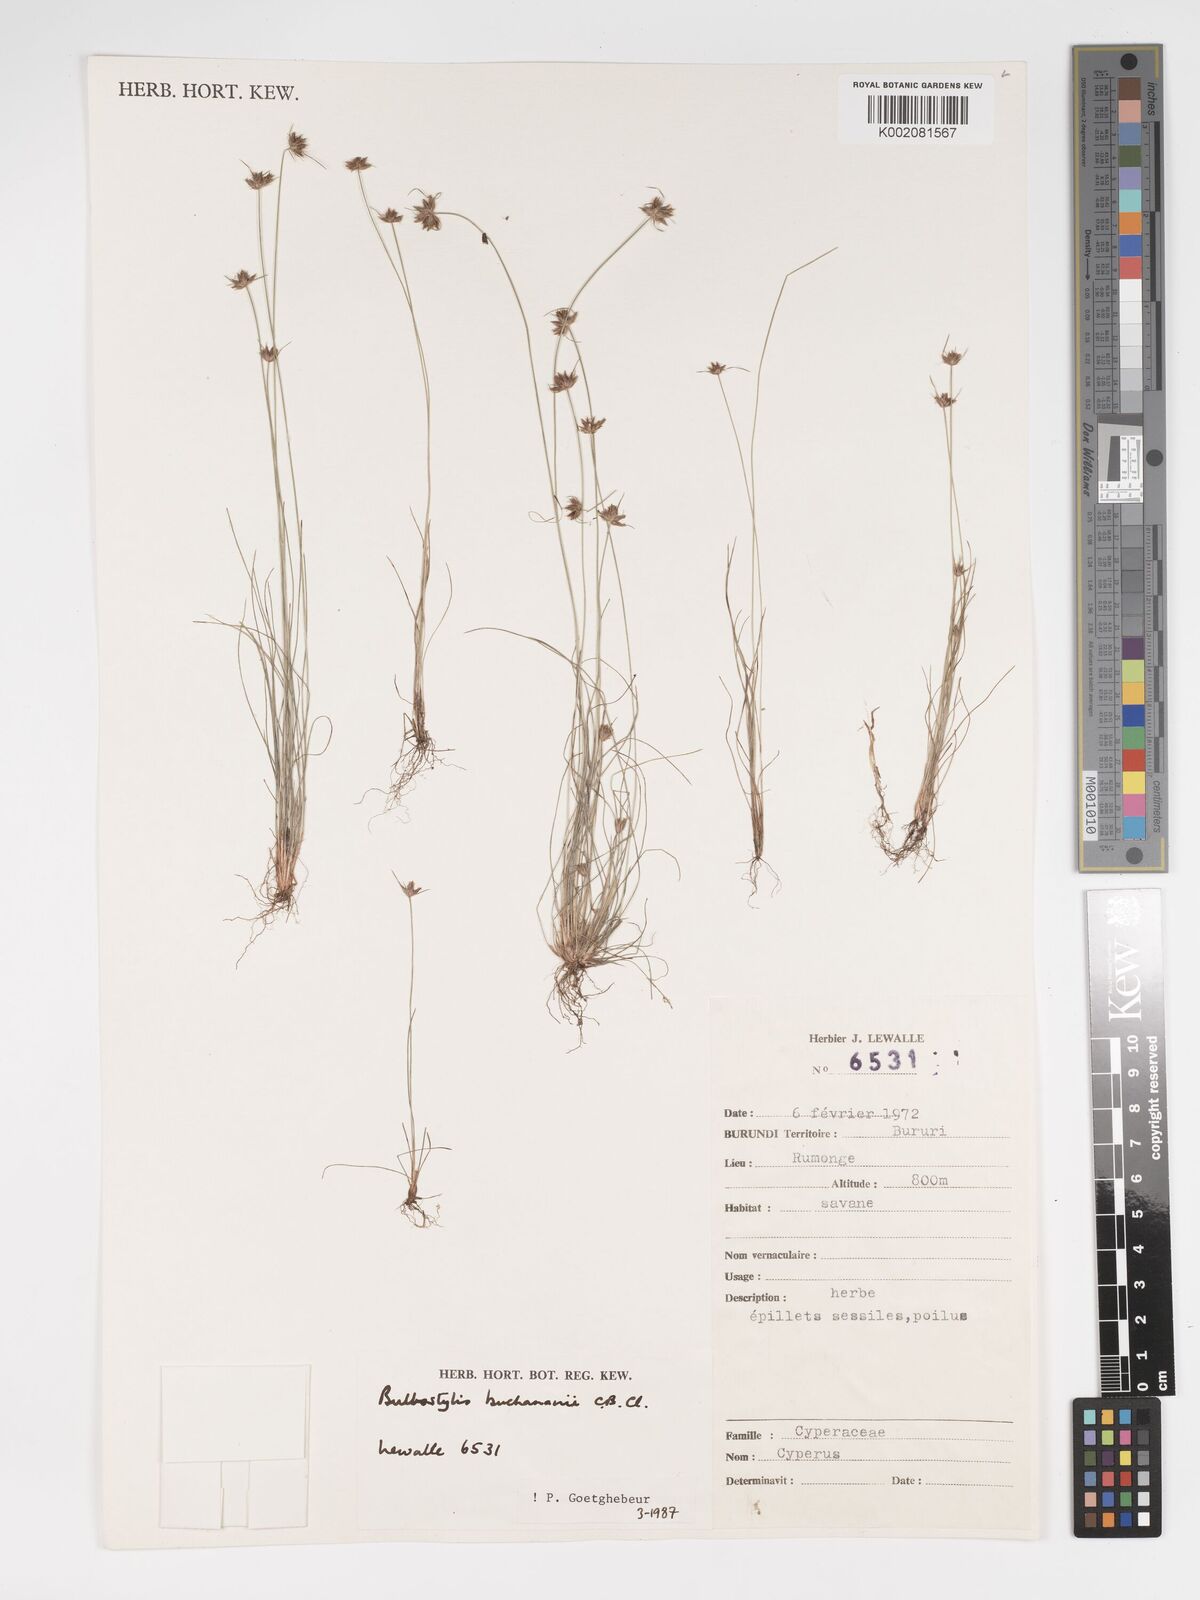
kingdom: Plantae
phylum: Tracheophyta
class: Liliopsida
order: Poales
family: Cyperaceae
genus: Bulbostylis
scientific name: Bulbostylis buchananii
